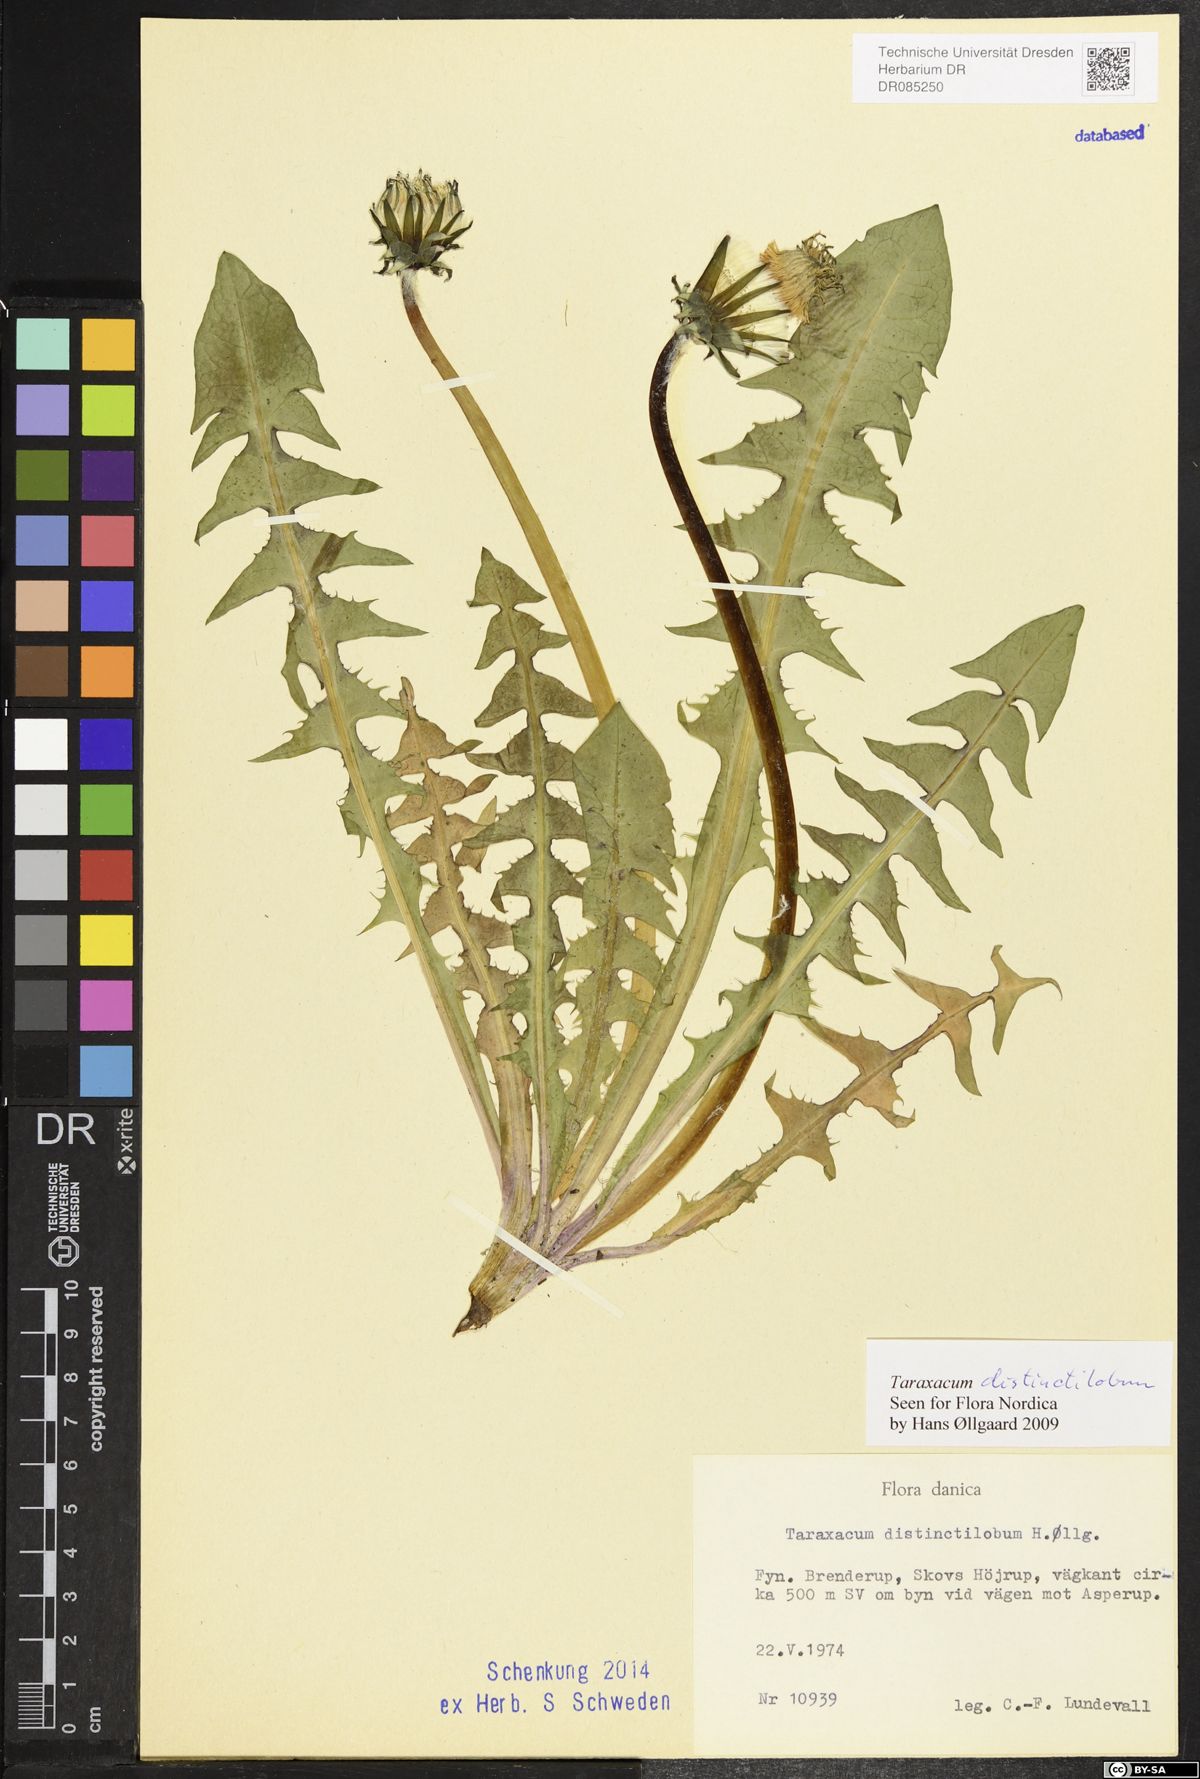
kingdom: Plantae
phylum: Tracheophyta
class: Magnoliopsida
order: Asterales
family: Asteraceae
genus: Taraxacum
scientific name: Taraxacum distinctilobum
